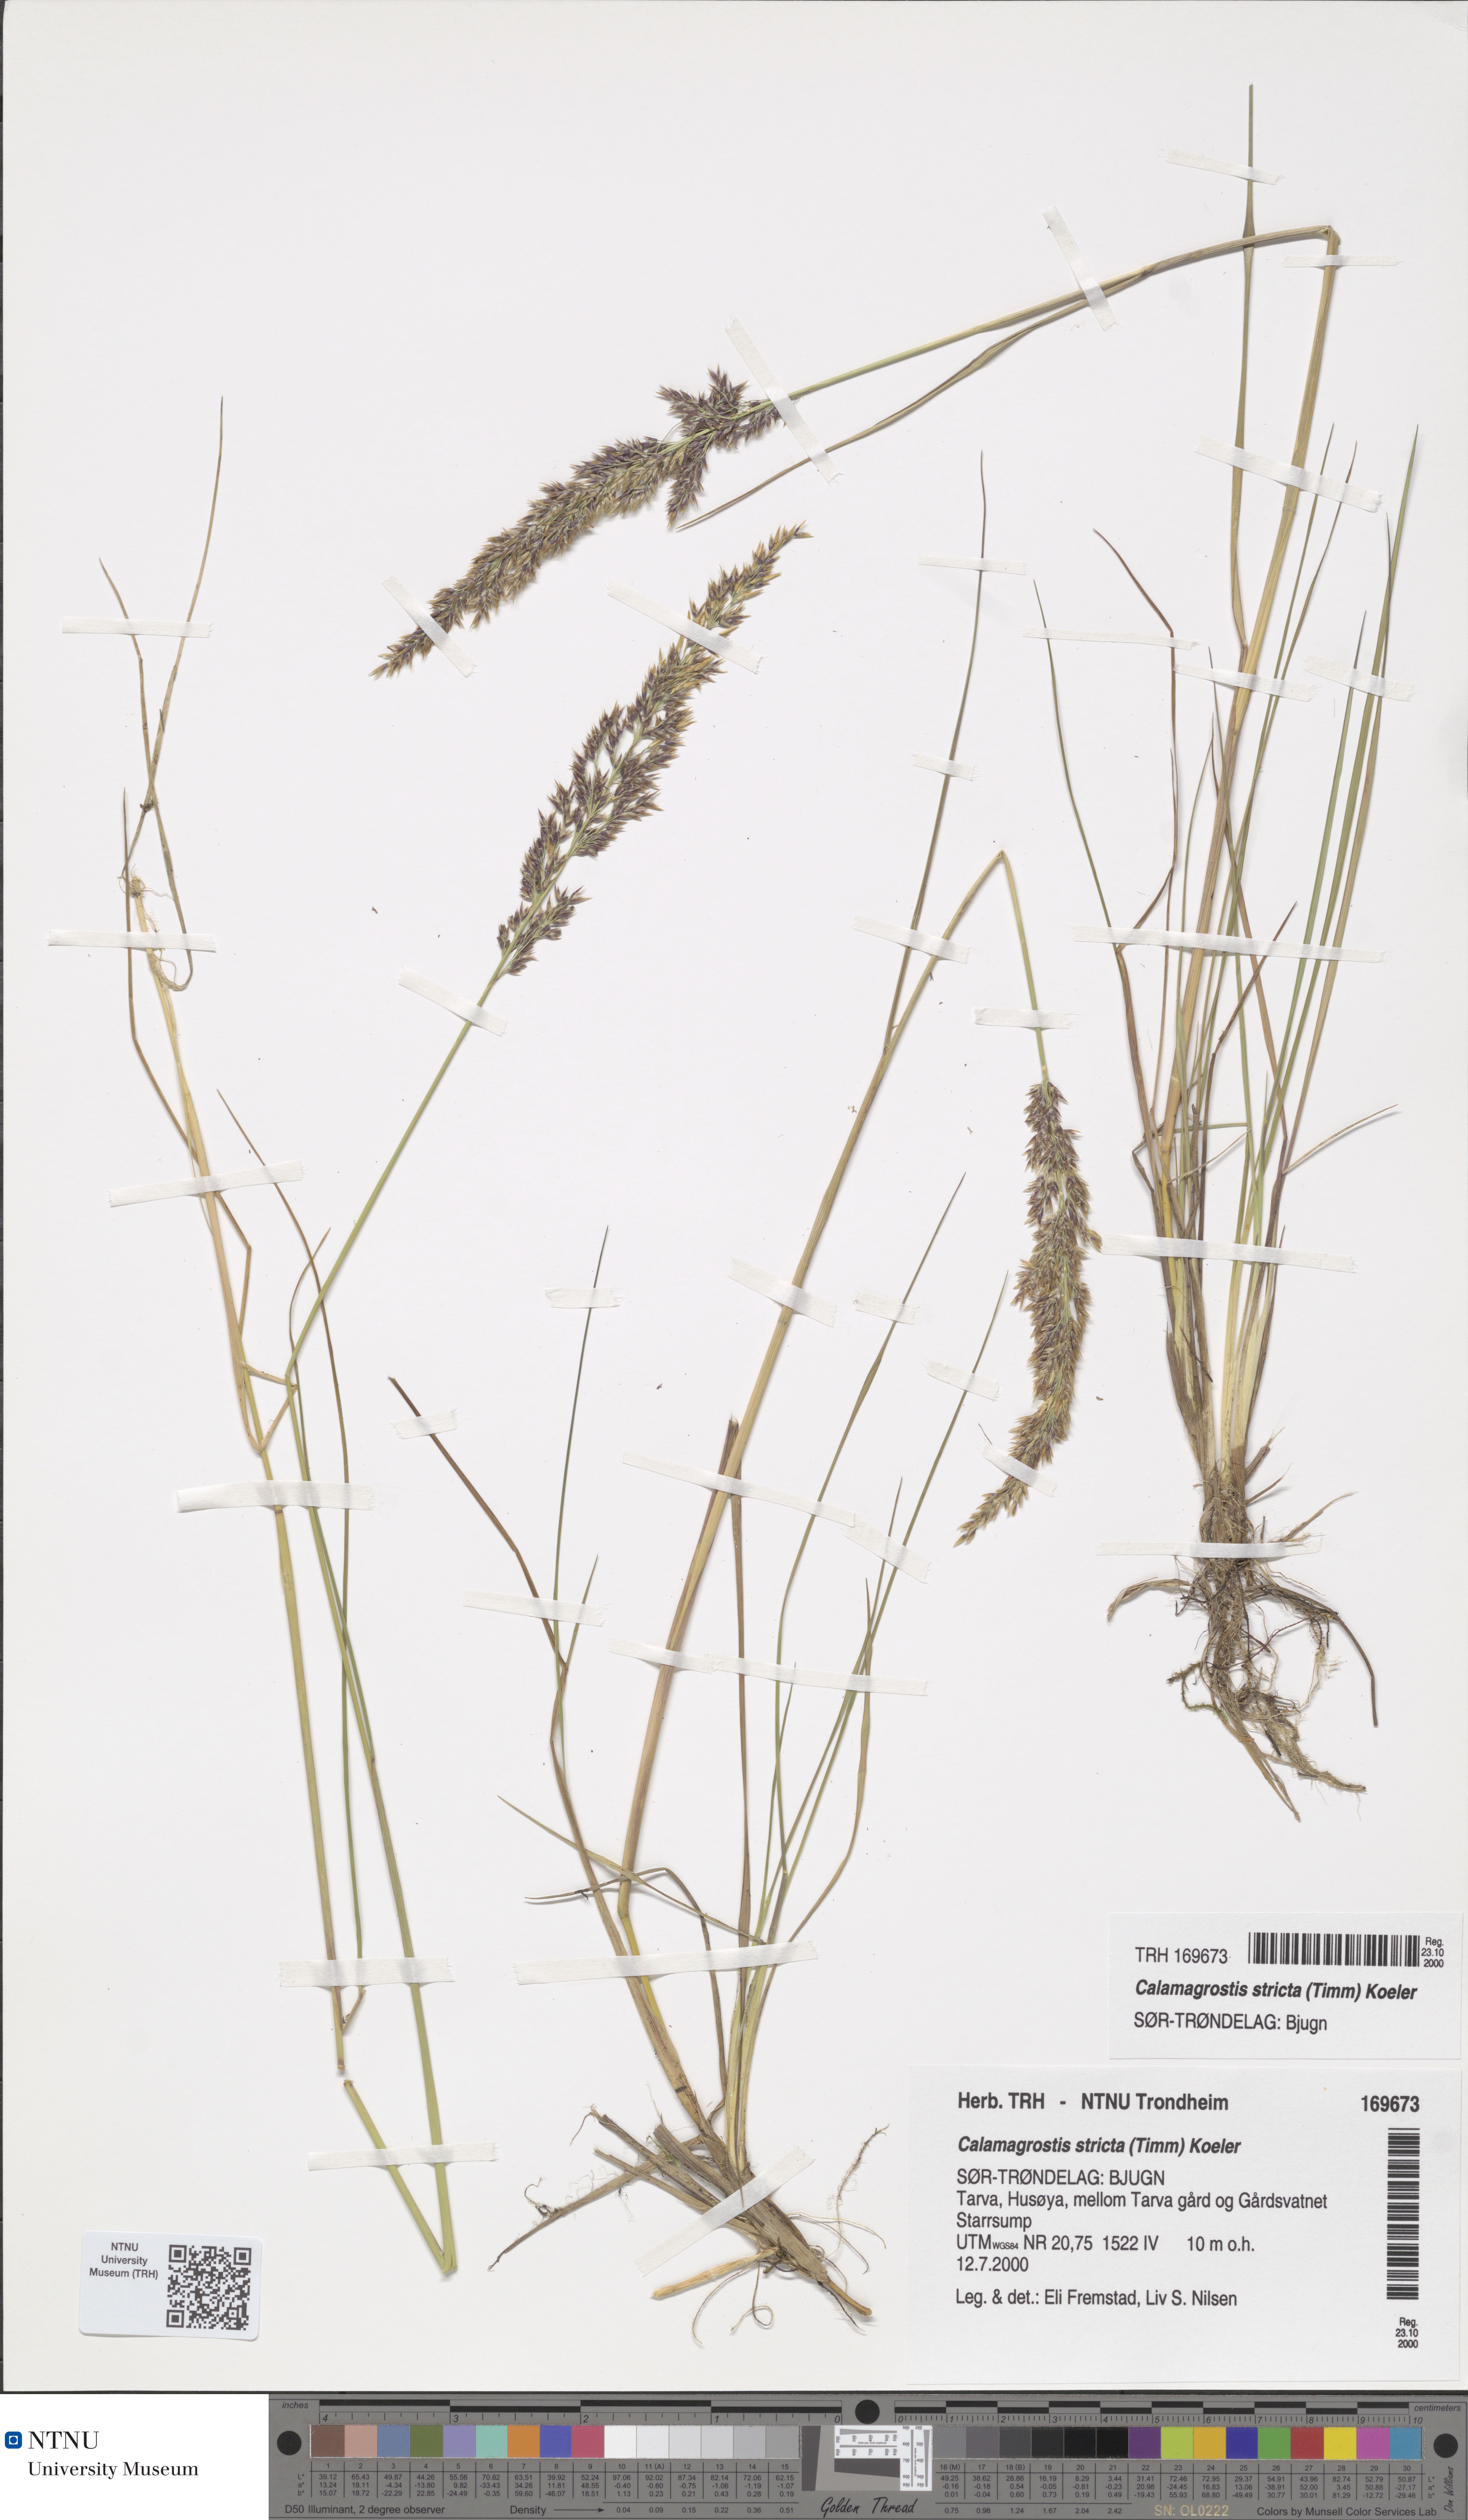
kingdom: Plantae
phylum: Tracheophyta
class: Liliopsida
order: Poales
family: Poaceae
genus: Achnatherum
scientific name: Achnatherum calamagrostis
